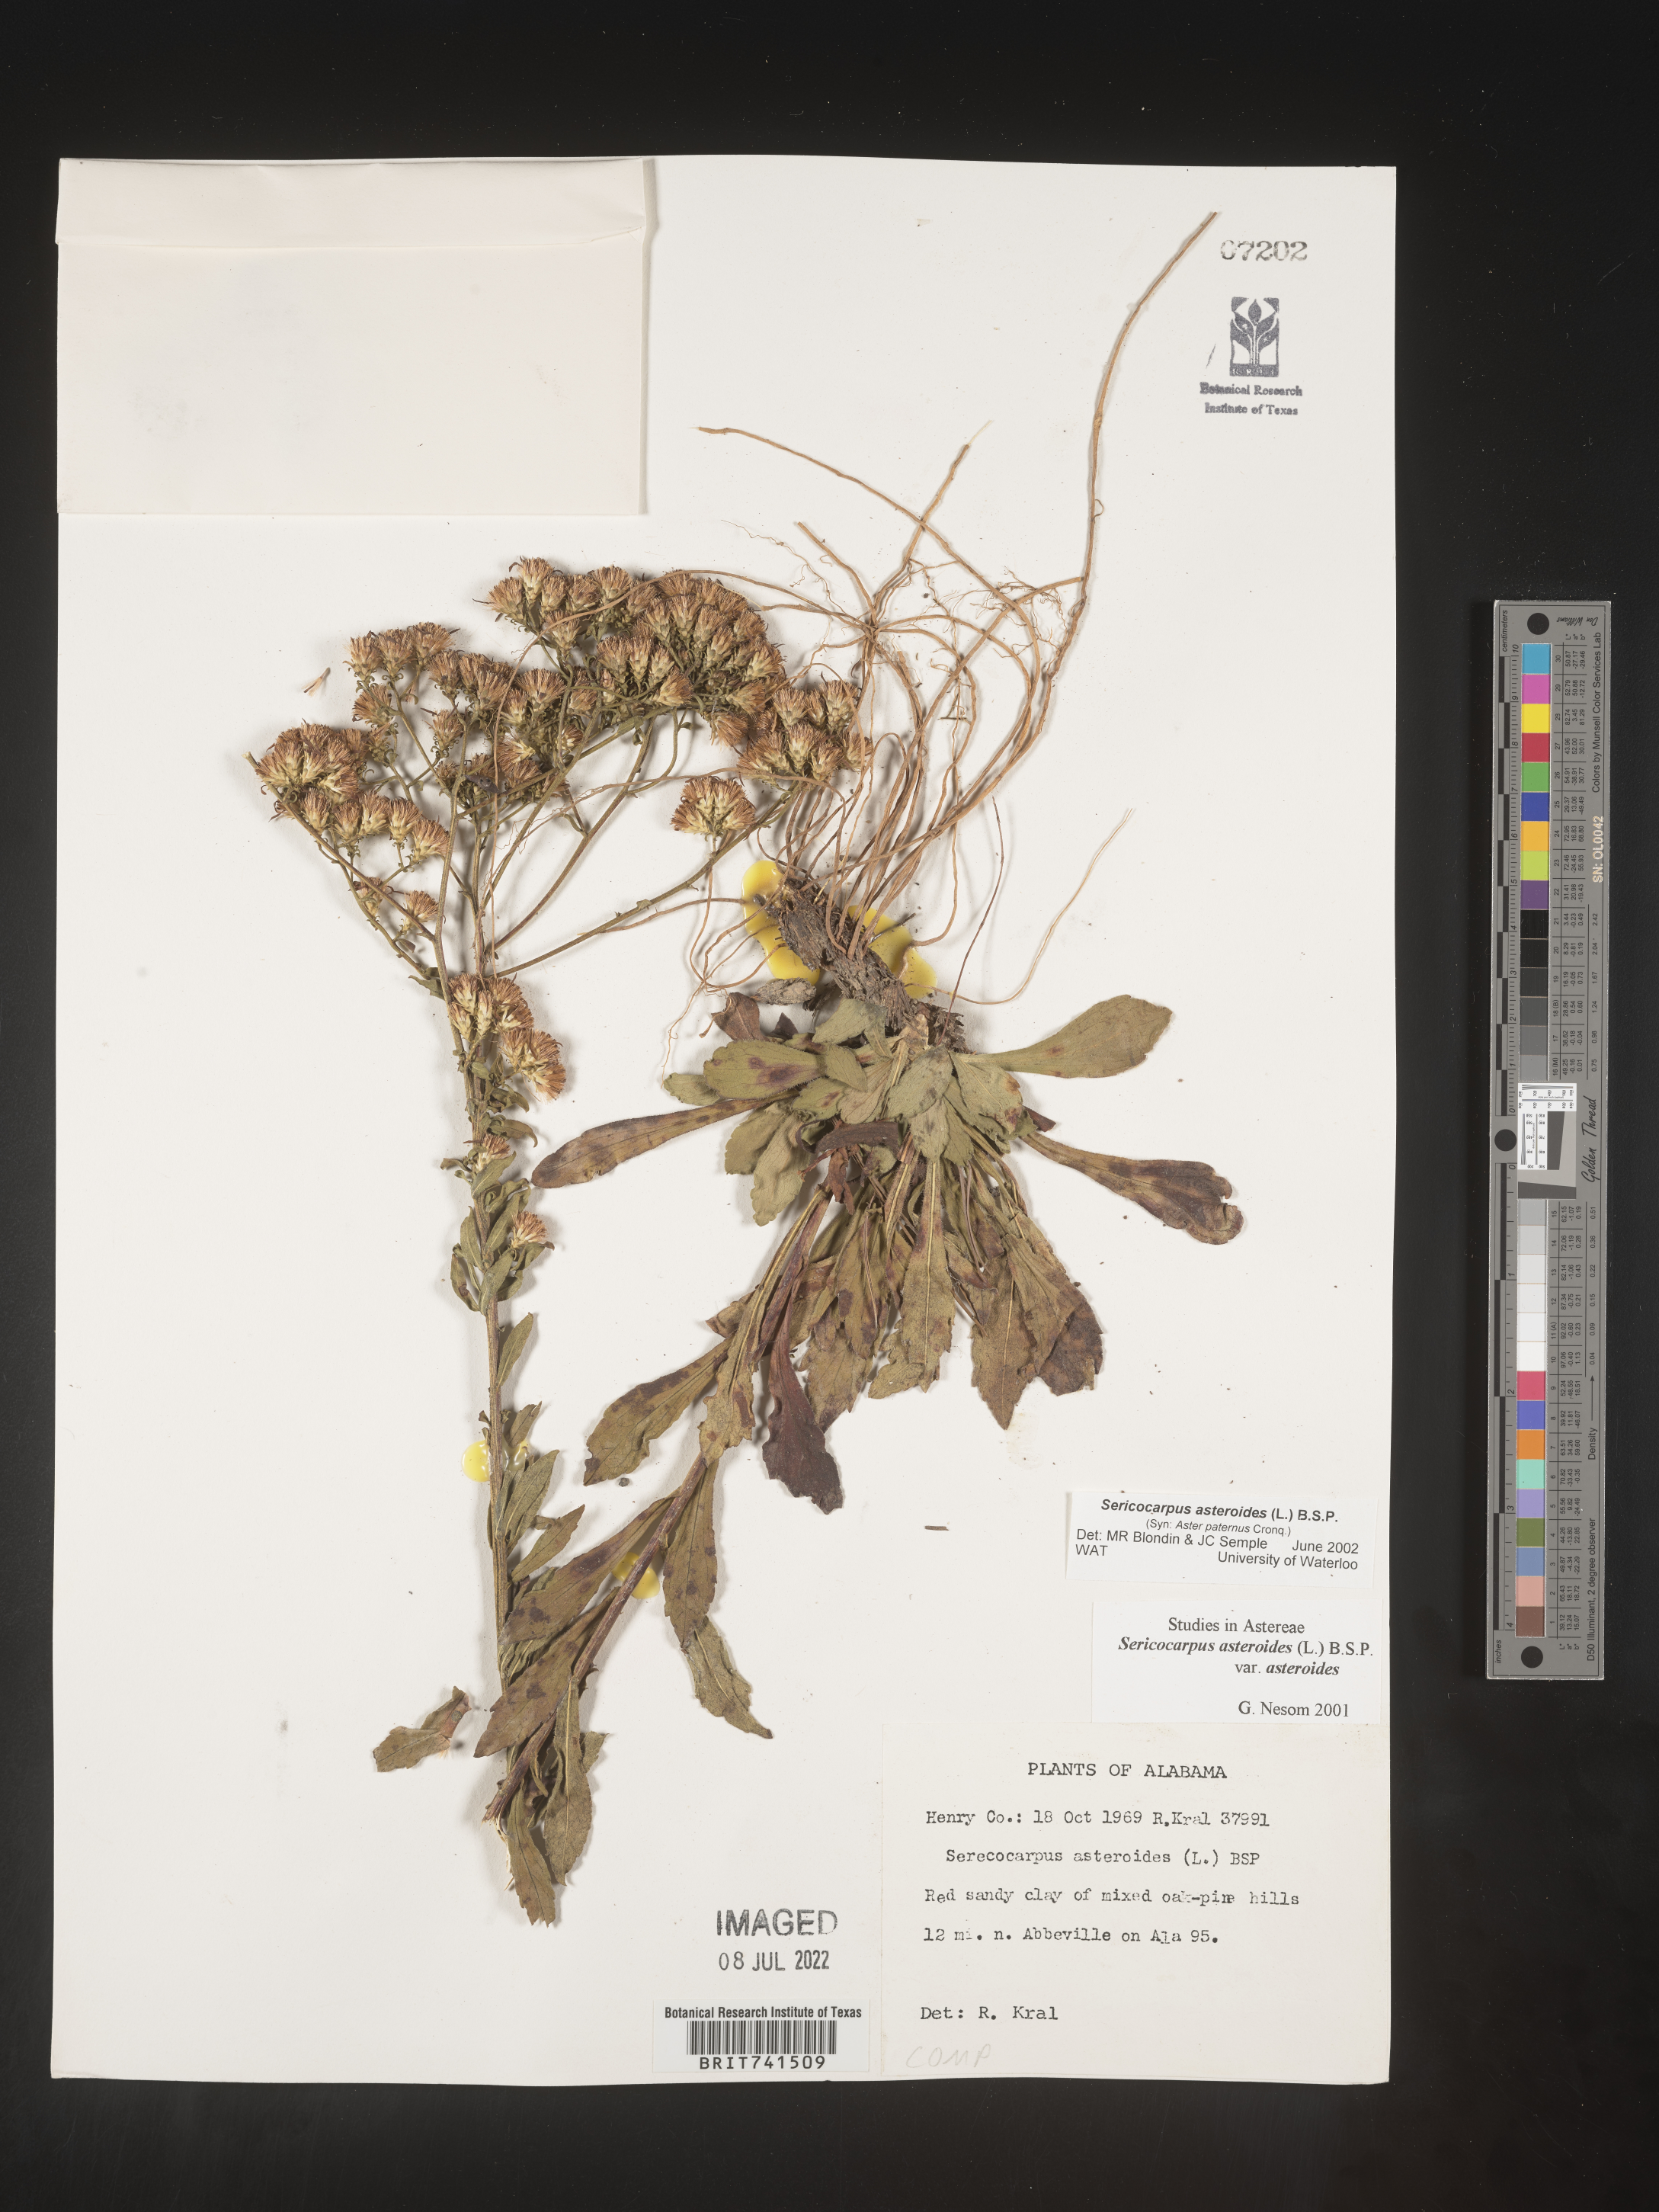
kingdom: Plantae
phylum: Tracheophyta
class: Magnoliopsida
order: Asterales
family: Asteraceae
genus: Sericocarpus
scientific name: Sericocarpus asteroides
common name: Toothed white-top aster
